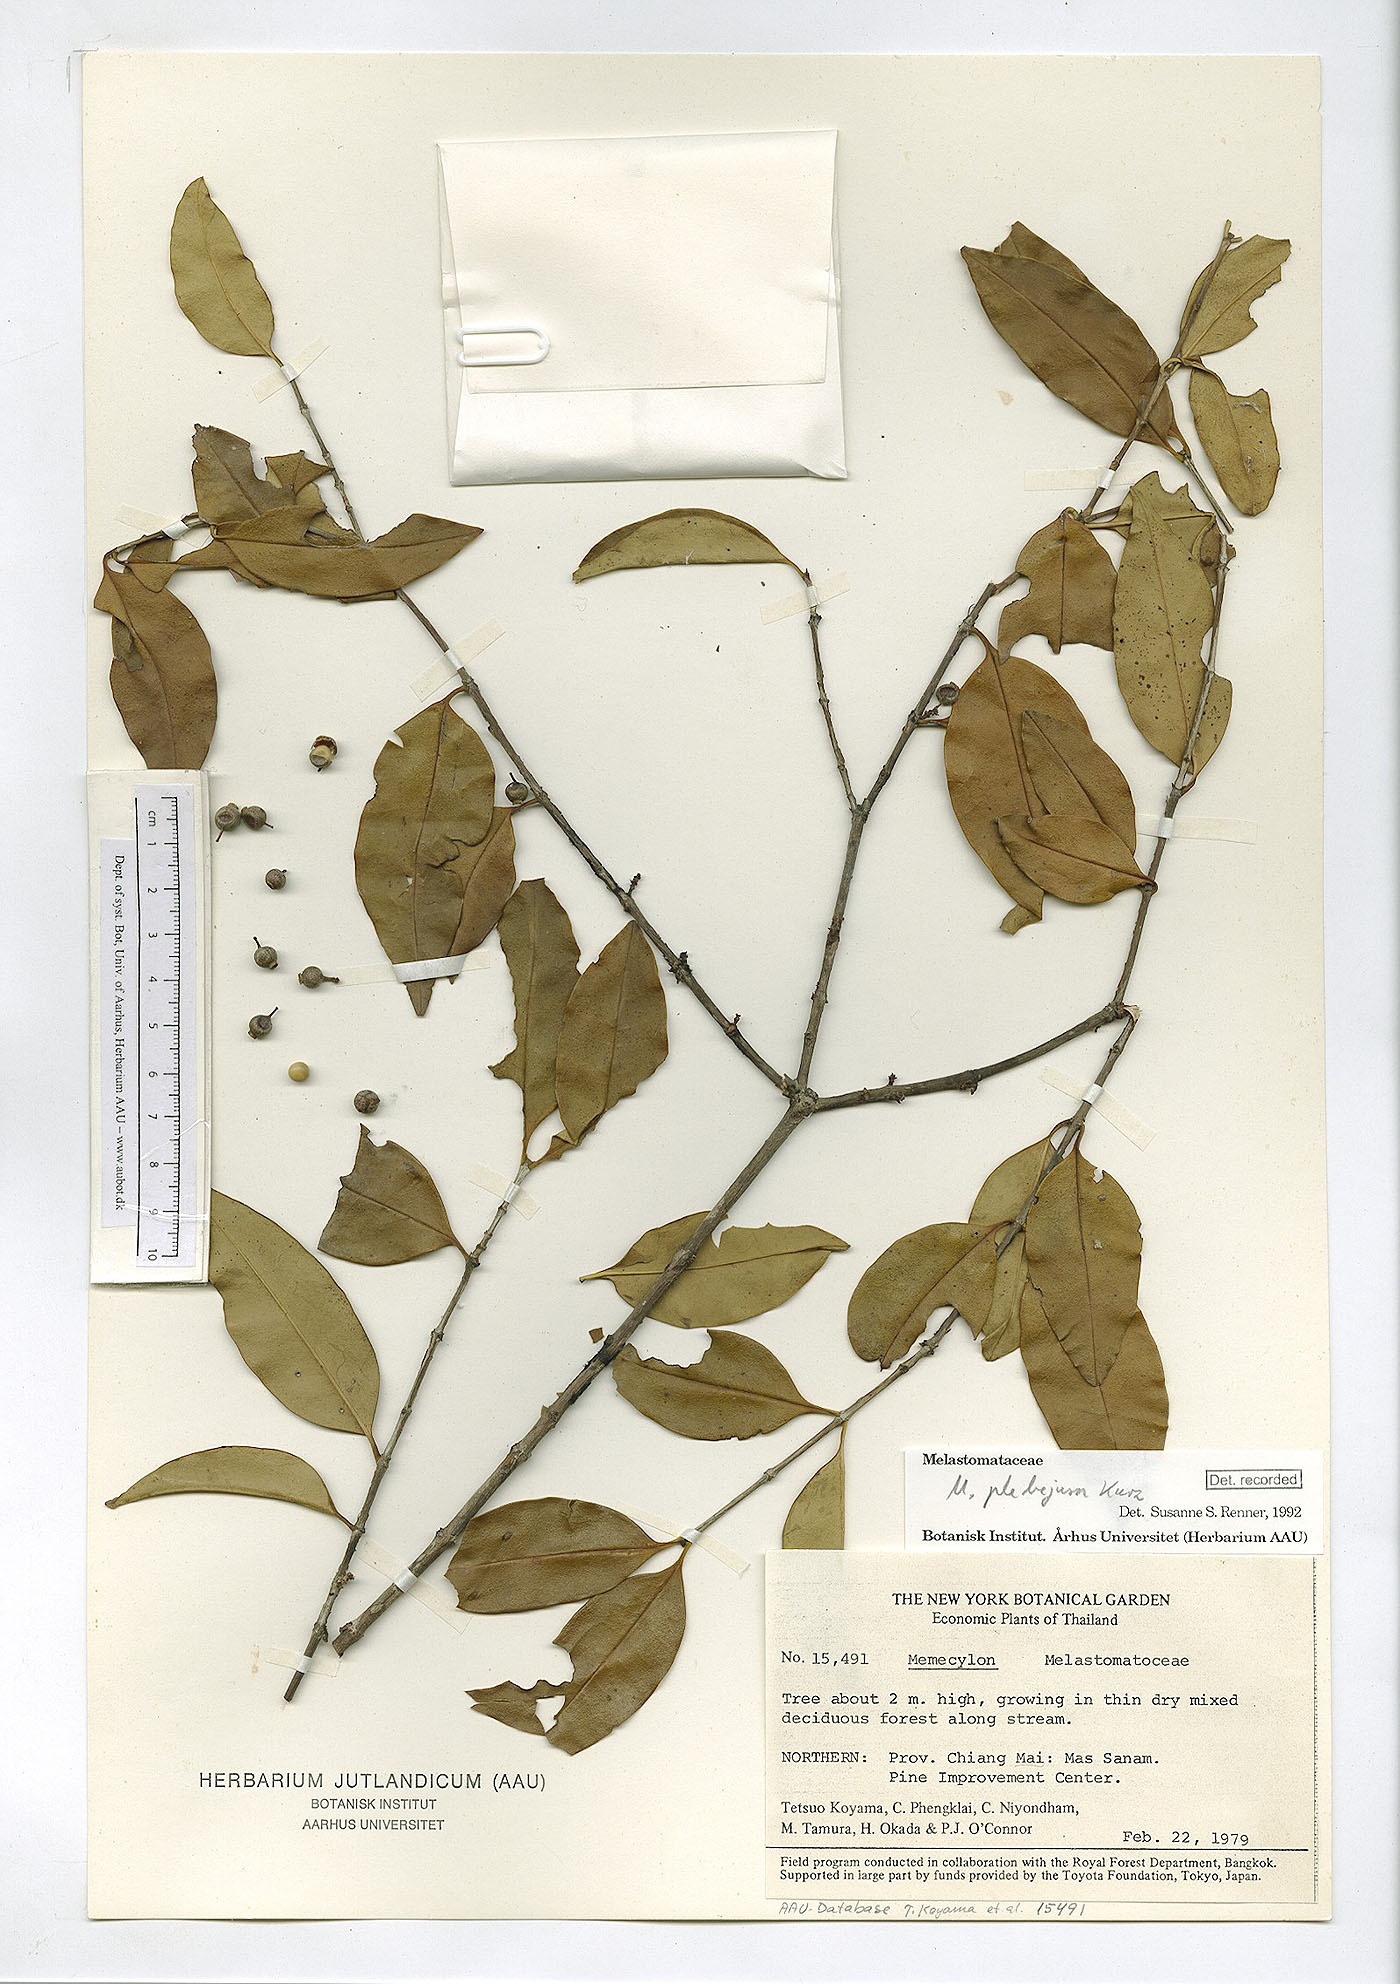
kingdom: Plantae
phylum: Tracheophyta
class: Magnoliopsida
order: Myrtales
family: Melastomataceae
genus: Memecylon
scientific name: Memecylon plebejum
